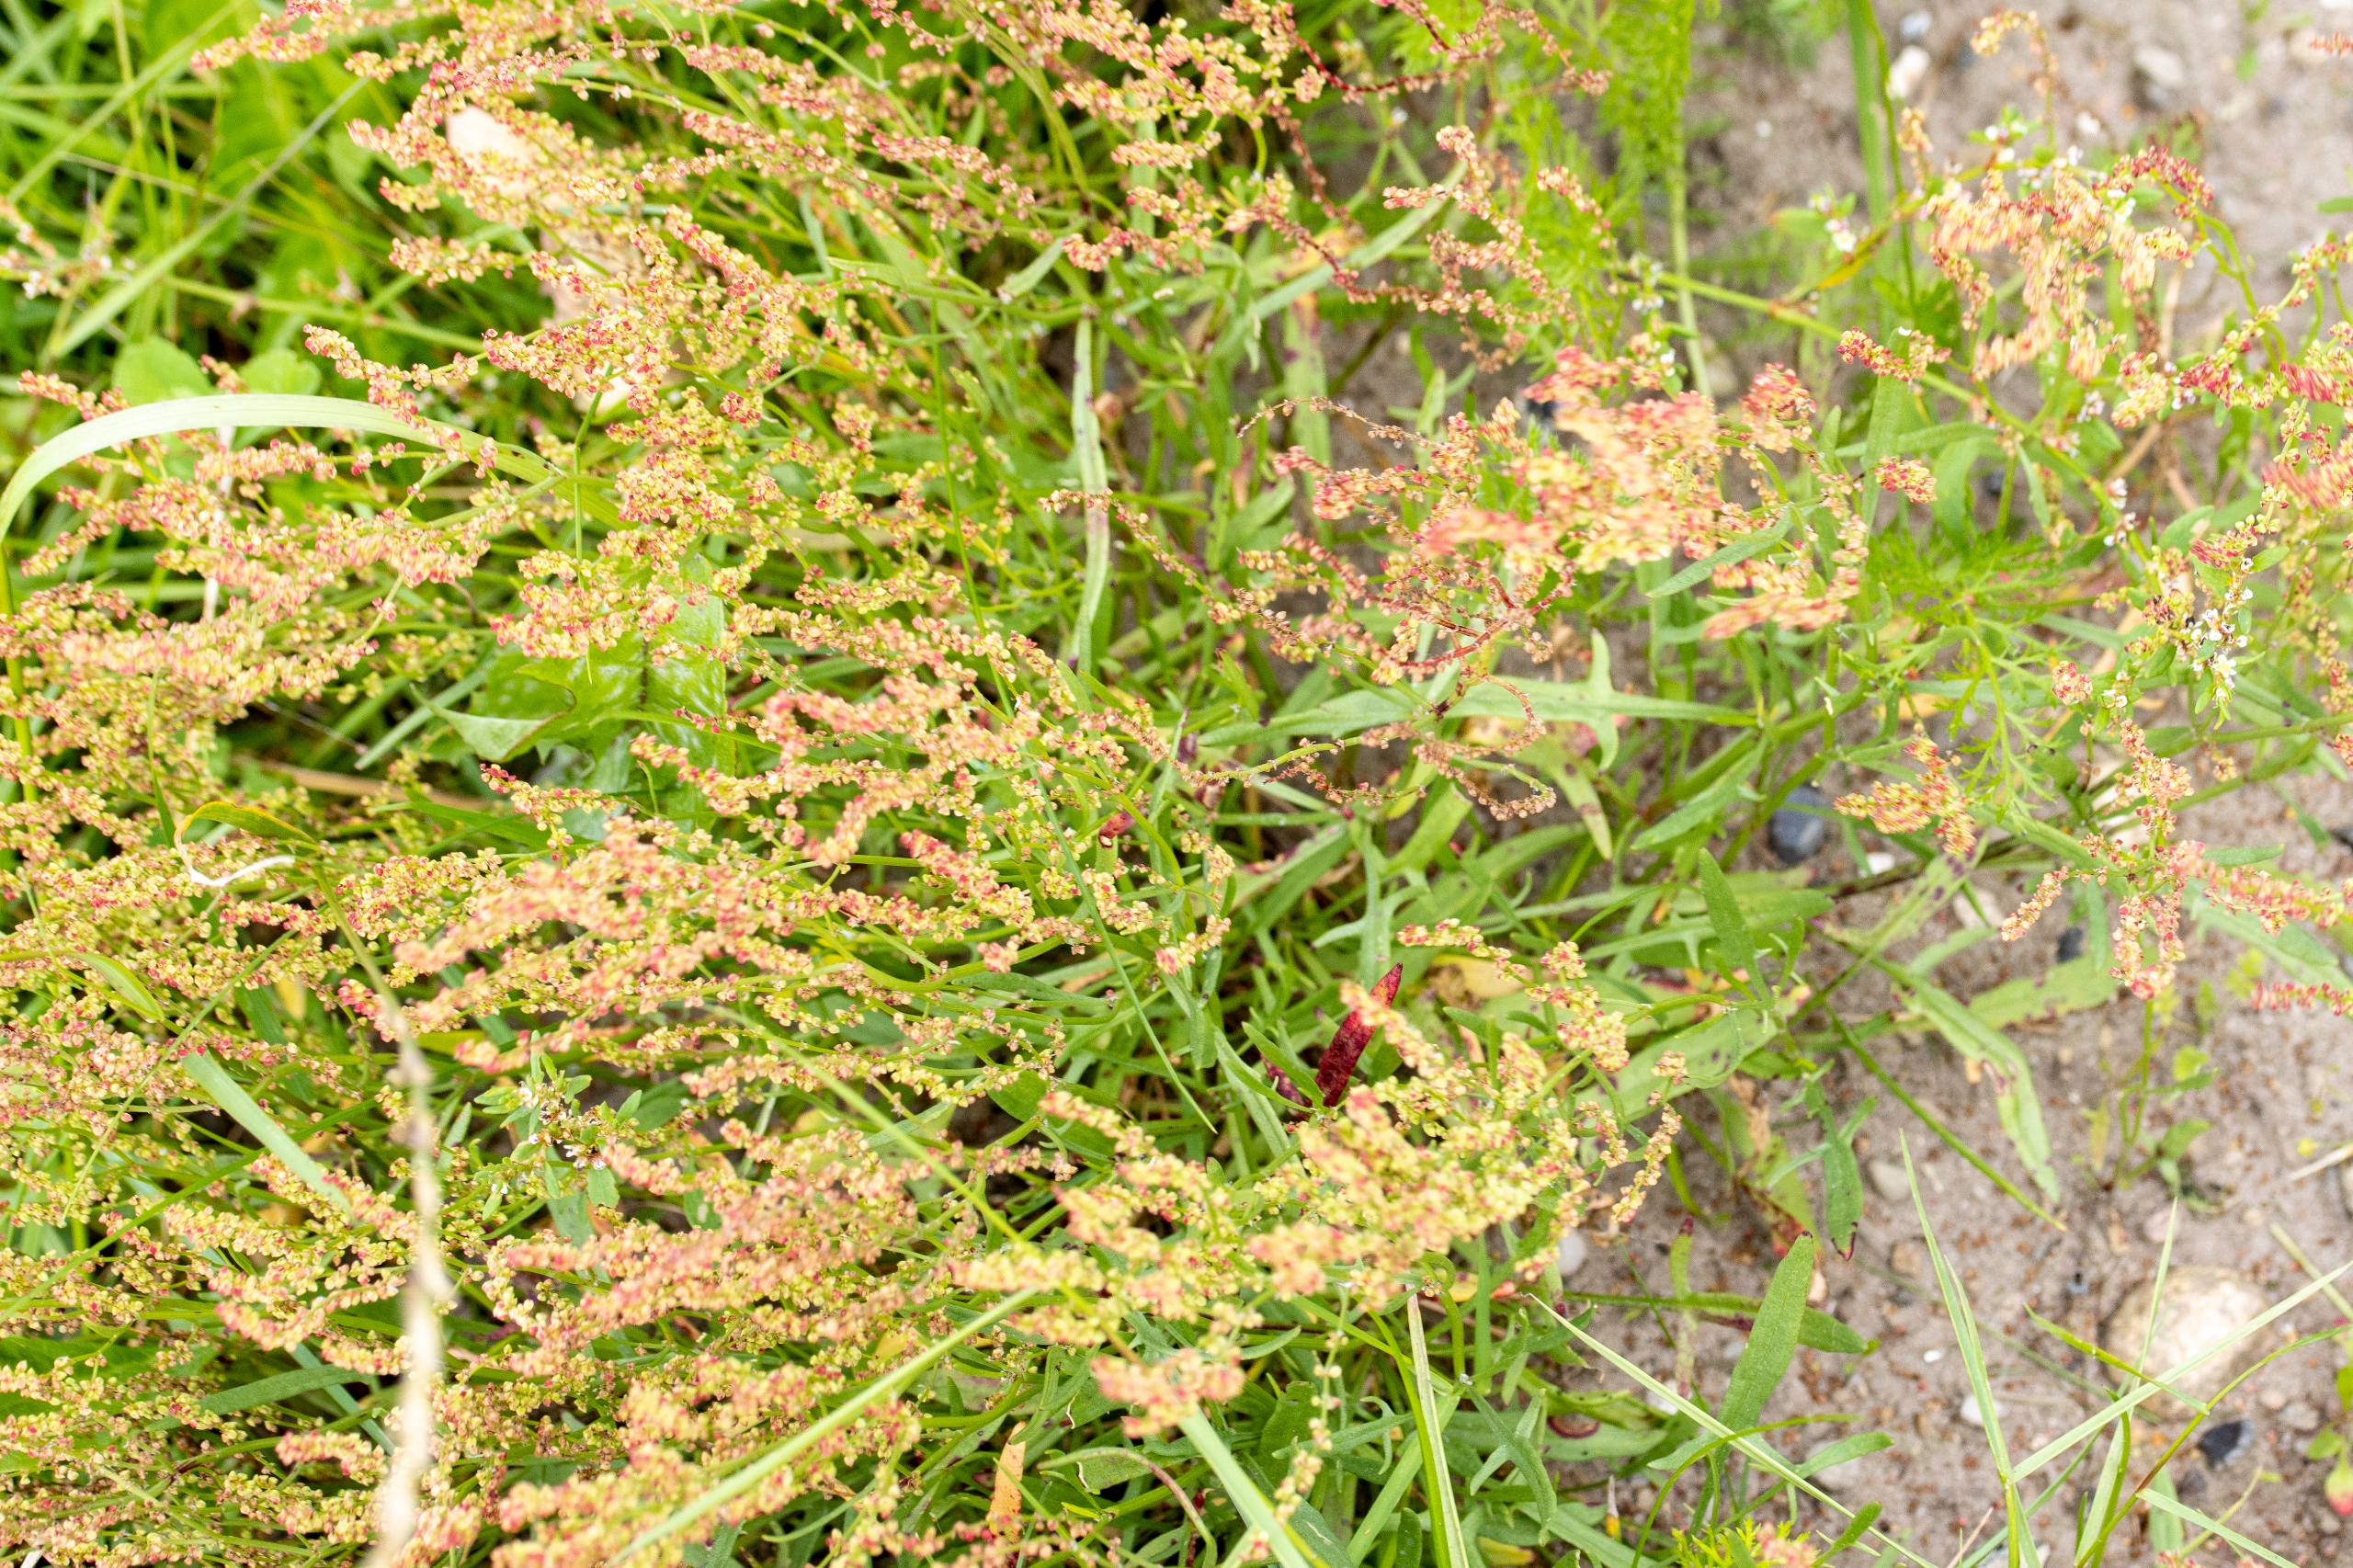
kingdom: Plantae
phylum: Tracheophyta
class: Magnoliopsida
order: Caryophyllales
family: Polygonaceae
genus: Rumex
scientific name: Rumex acetosella
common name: Rødknæ
